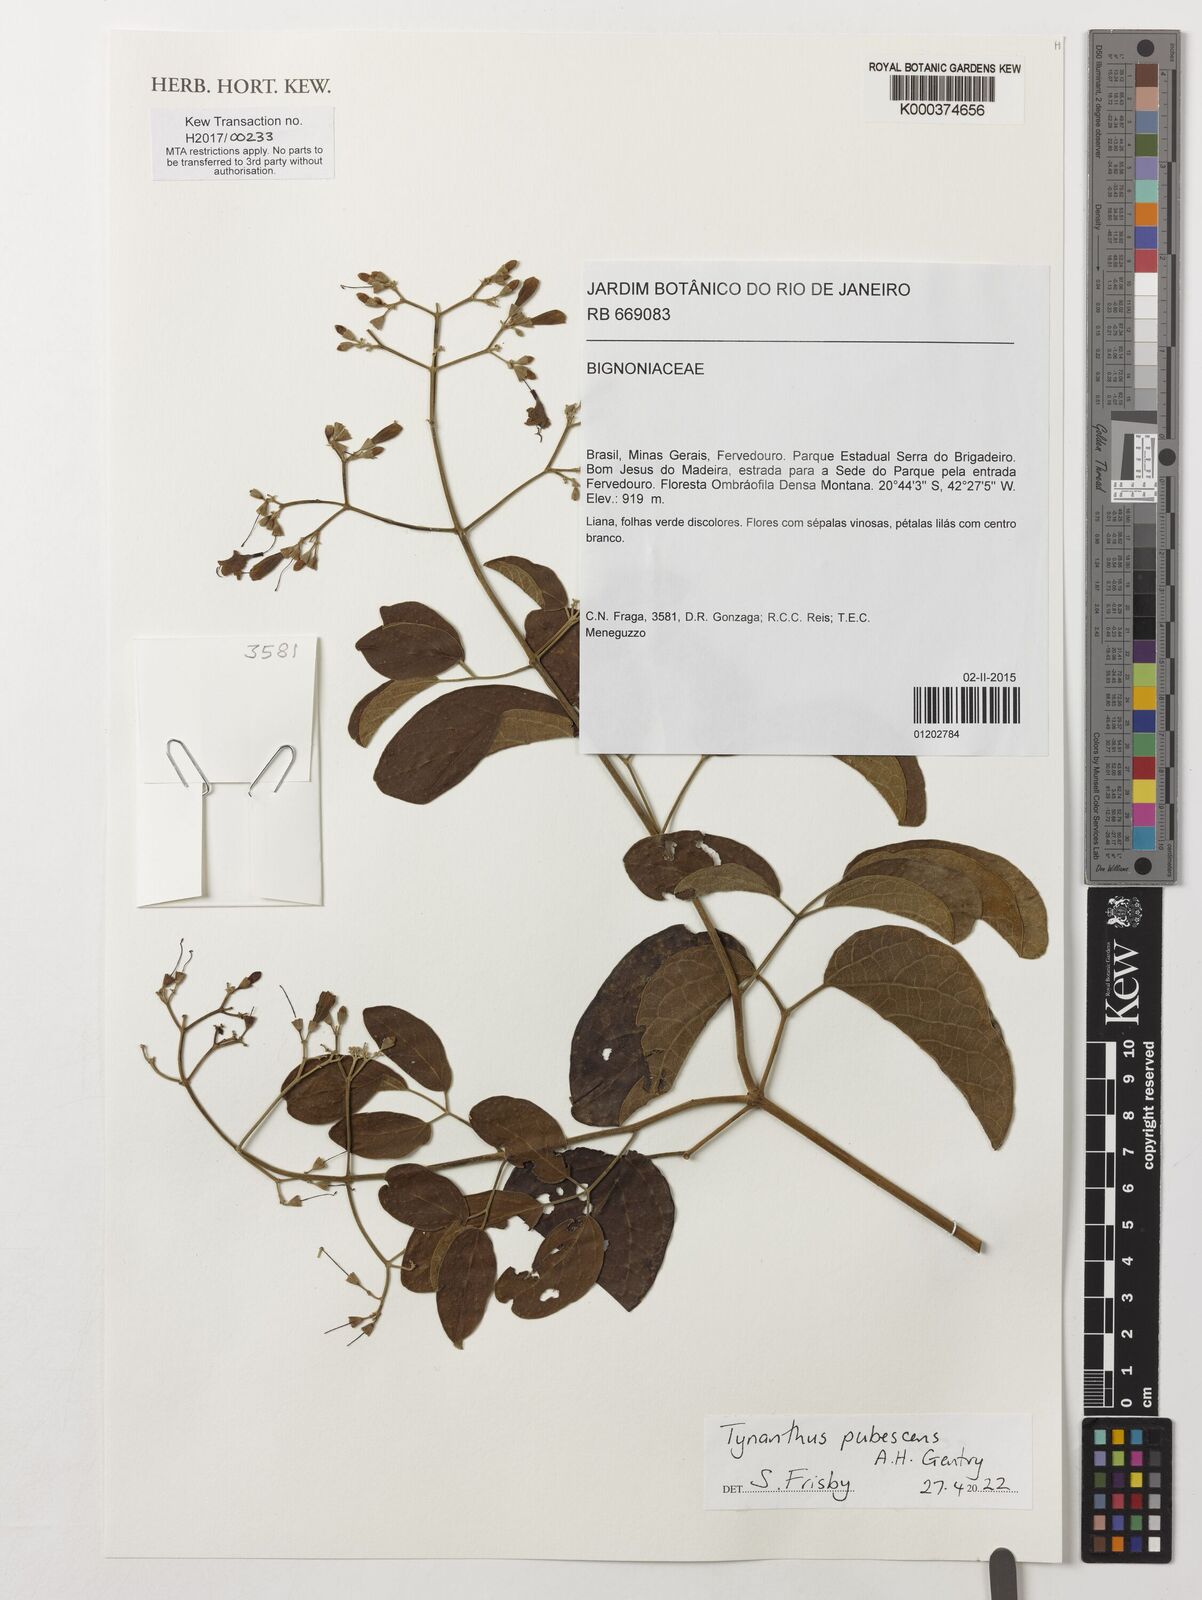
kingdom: Plantae
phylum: Tracheophyta
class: Magnoliopsida
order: Lamiales
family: Bignoniaceae
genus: Tynanthus
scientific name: Tynanthus pubescens
